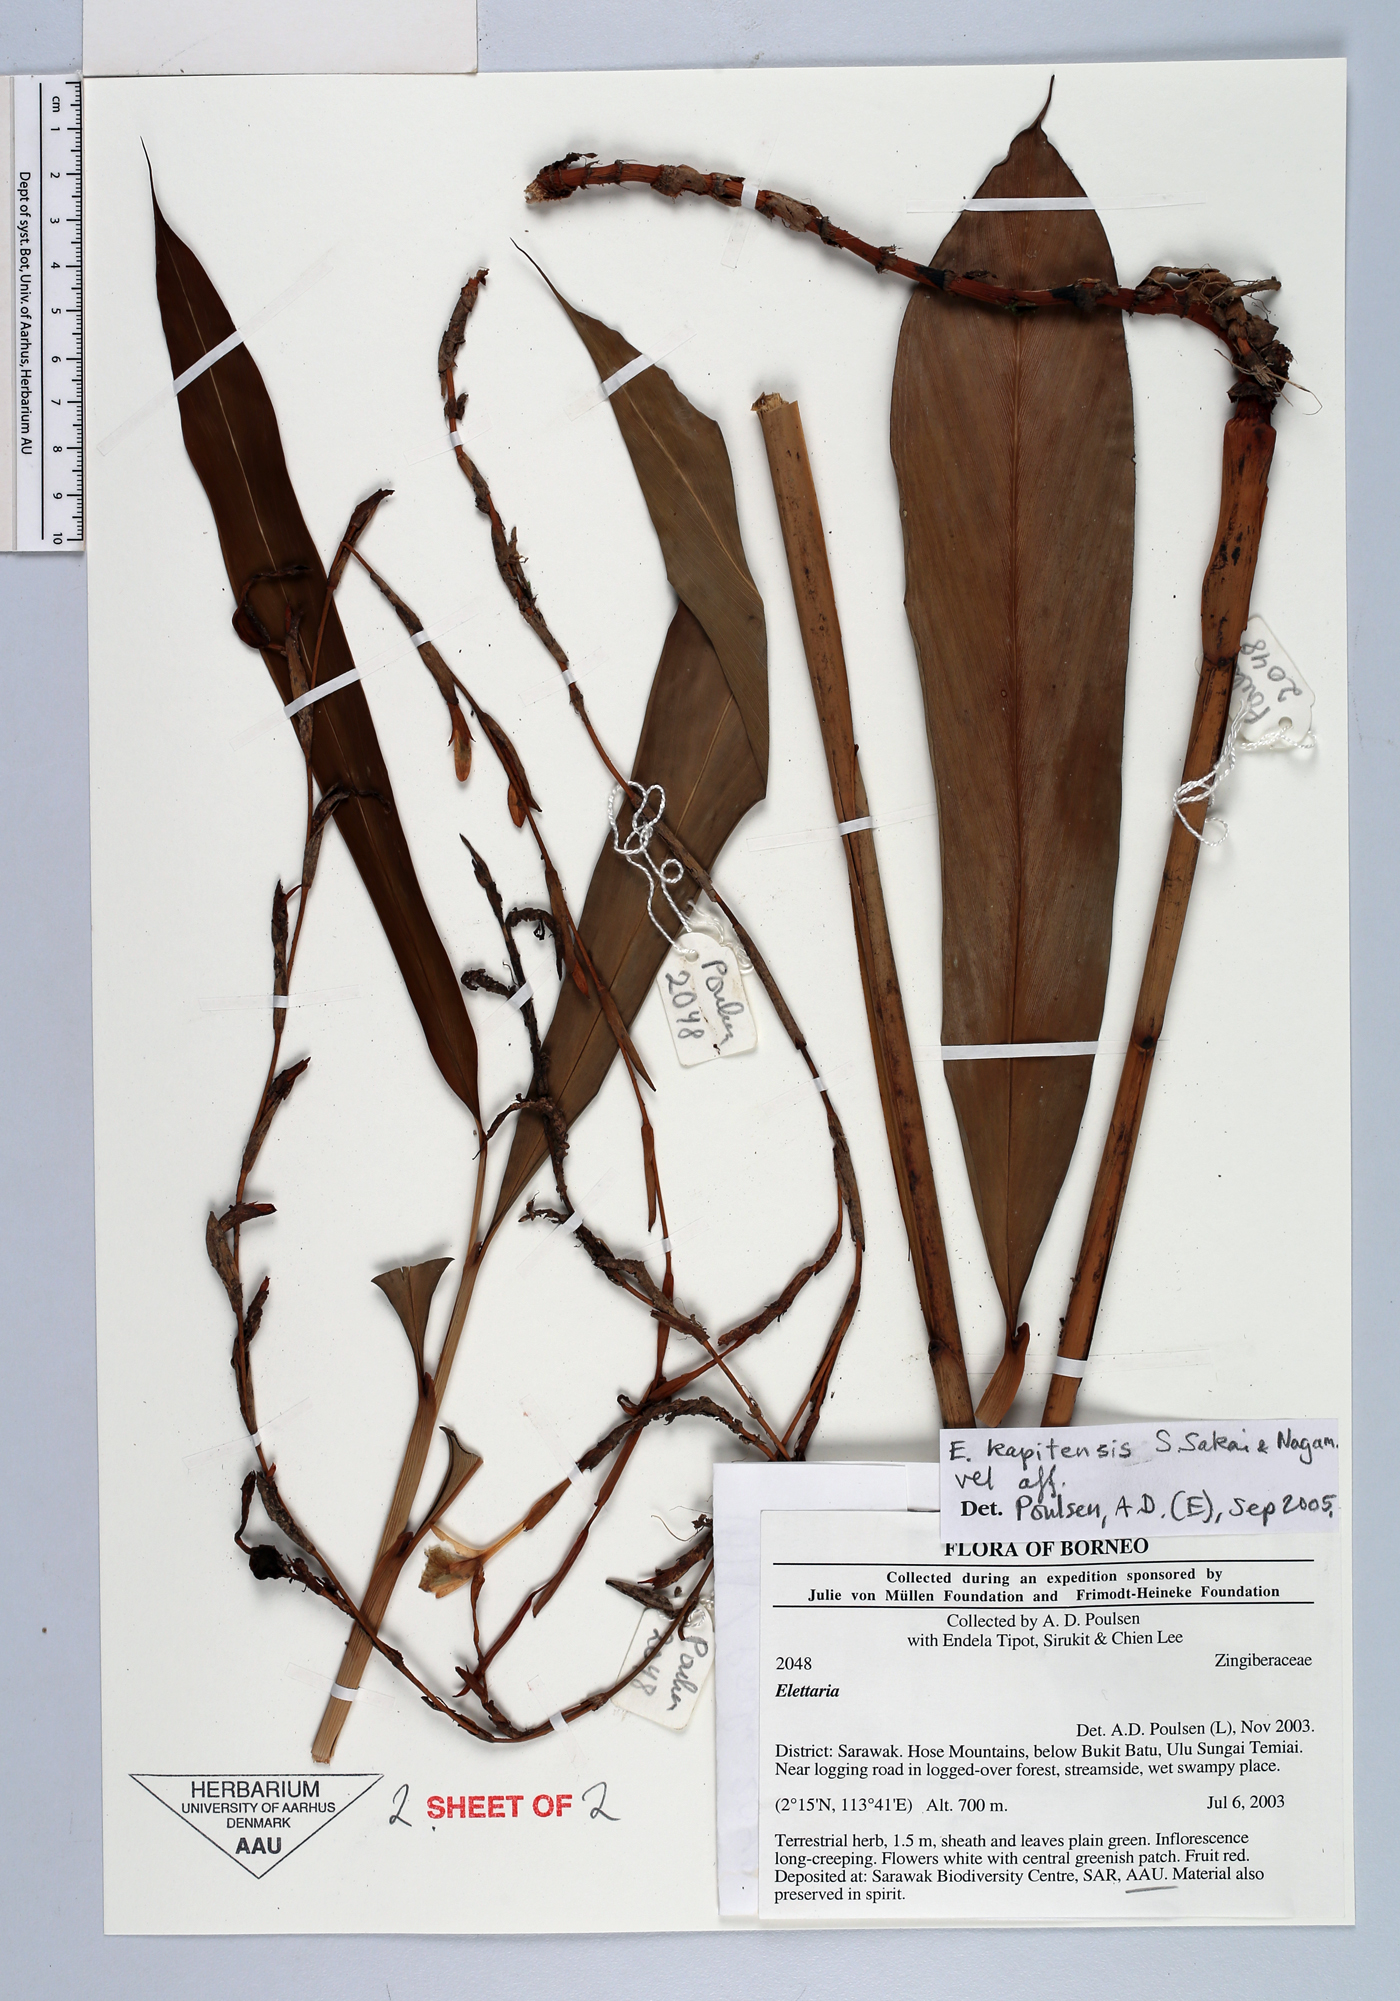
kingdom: Plantae
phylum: Tracheophyta
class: Liliopsida
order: Zingiberales
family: Zingiberaceae
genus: Sulettaria
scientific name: Sulettaria kapitensis
